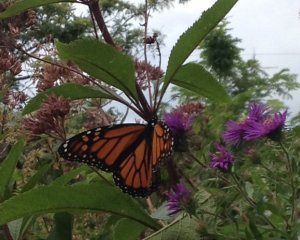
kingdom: Animalia
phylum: Arthropoda
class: Insecta
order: Lepidoptera
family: Nymphalidae
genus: Danaus
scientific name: Danaus plexippus
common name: Monarch
